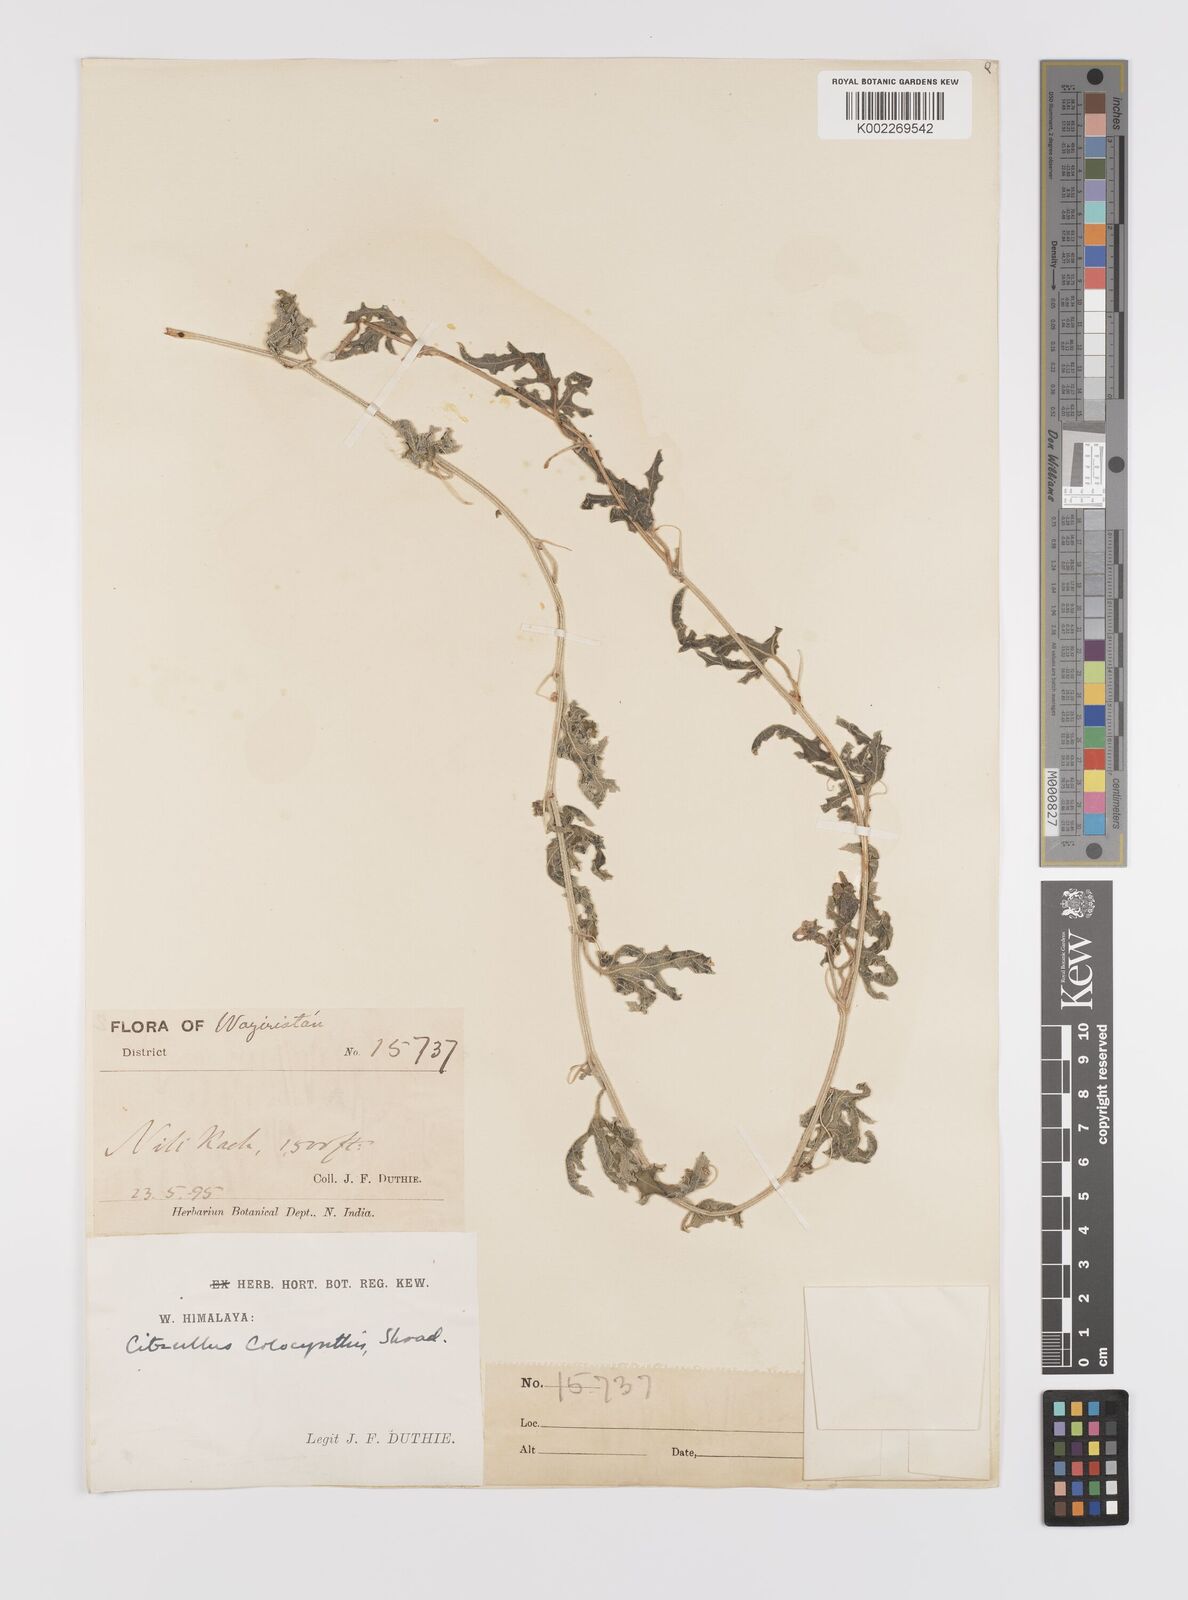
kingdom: Plantae
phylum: Tracheophyta
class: Magnoliopsida
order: Cucurbitales
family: Cucurbitaceae
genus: Citrullus
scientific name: Citrullus colocynthis
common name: Colocynth
